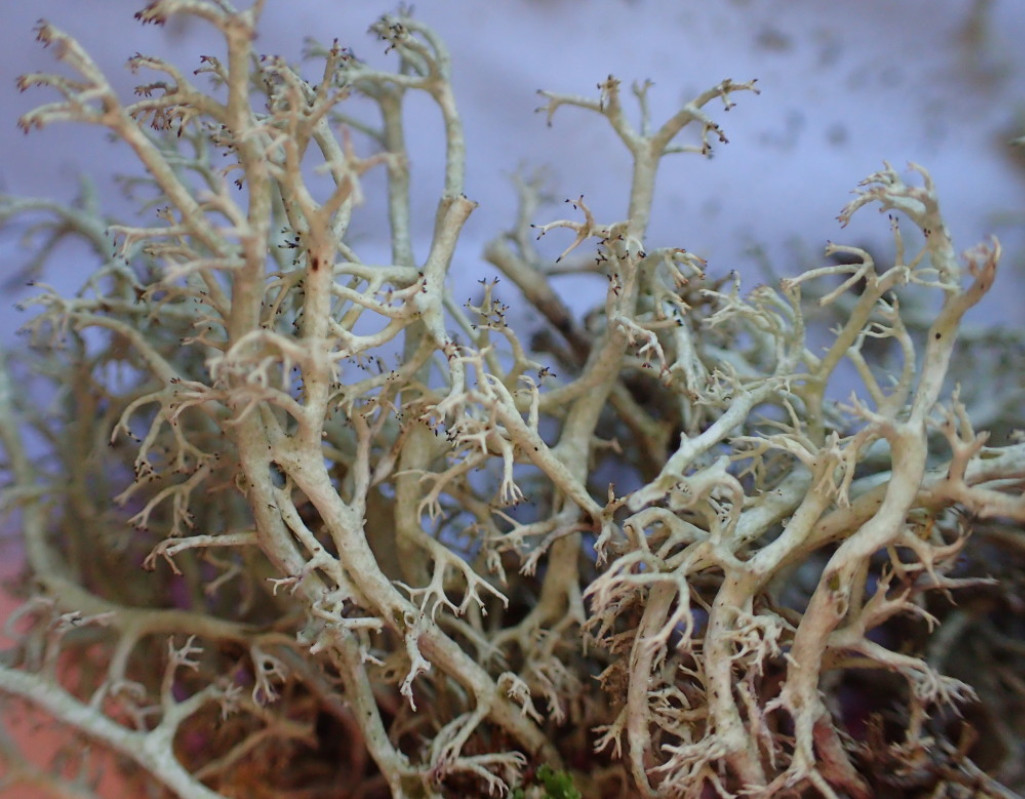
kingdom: Fungi
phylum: Ascomycota
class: Lecanoromycetes
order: Lecanorales
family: Cladoniaceae
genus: Cladonia
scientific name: Cladonia ciliata
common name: spinkel rensdyrlav
